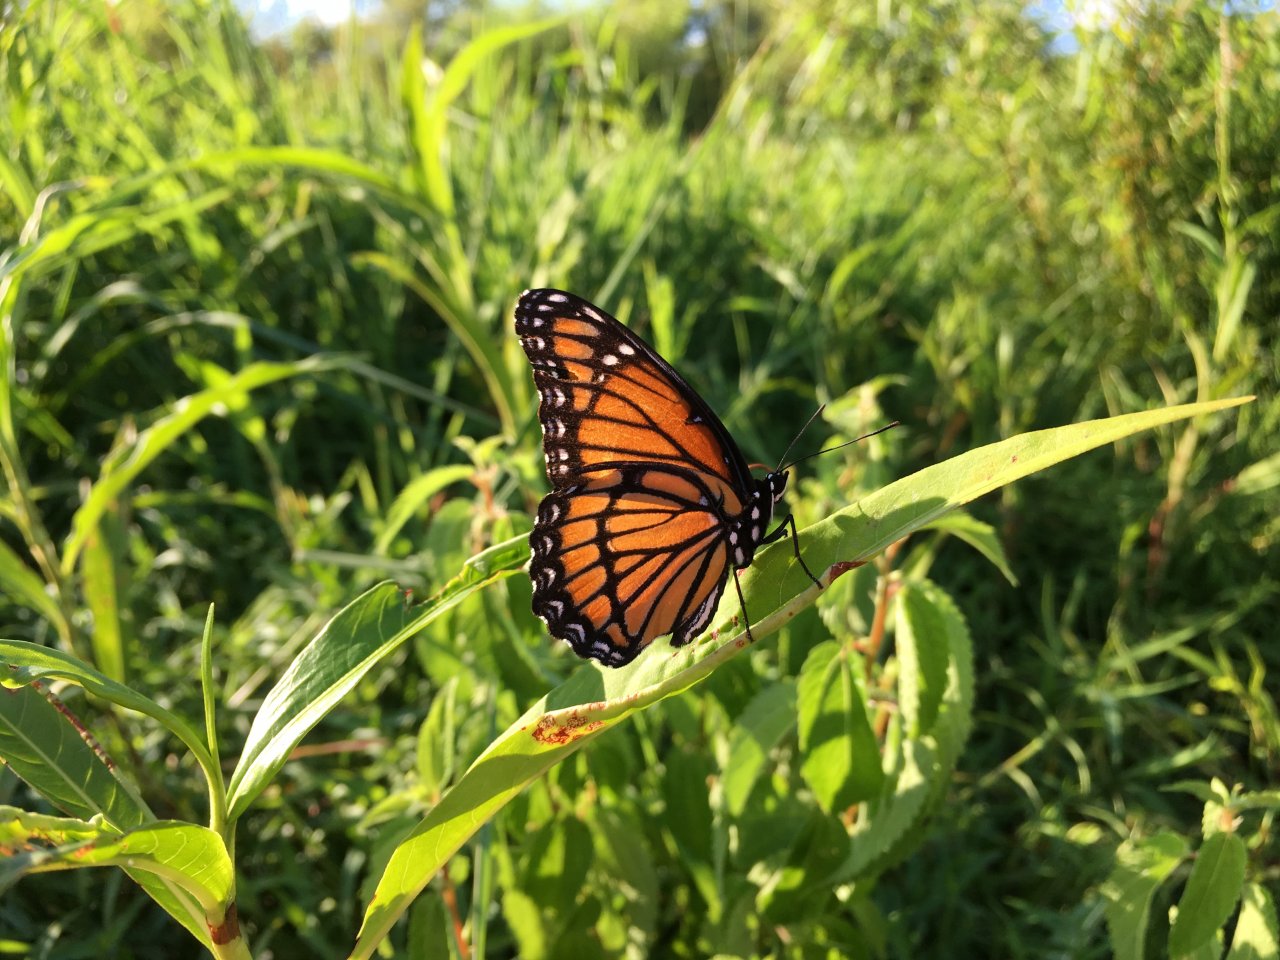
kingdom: Animalia
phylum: Arthropoda
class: Insecta
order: Lepidoptera
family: Nymphalidae
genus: Limenitis
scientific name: Limenitis archippus
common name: Viceroy
